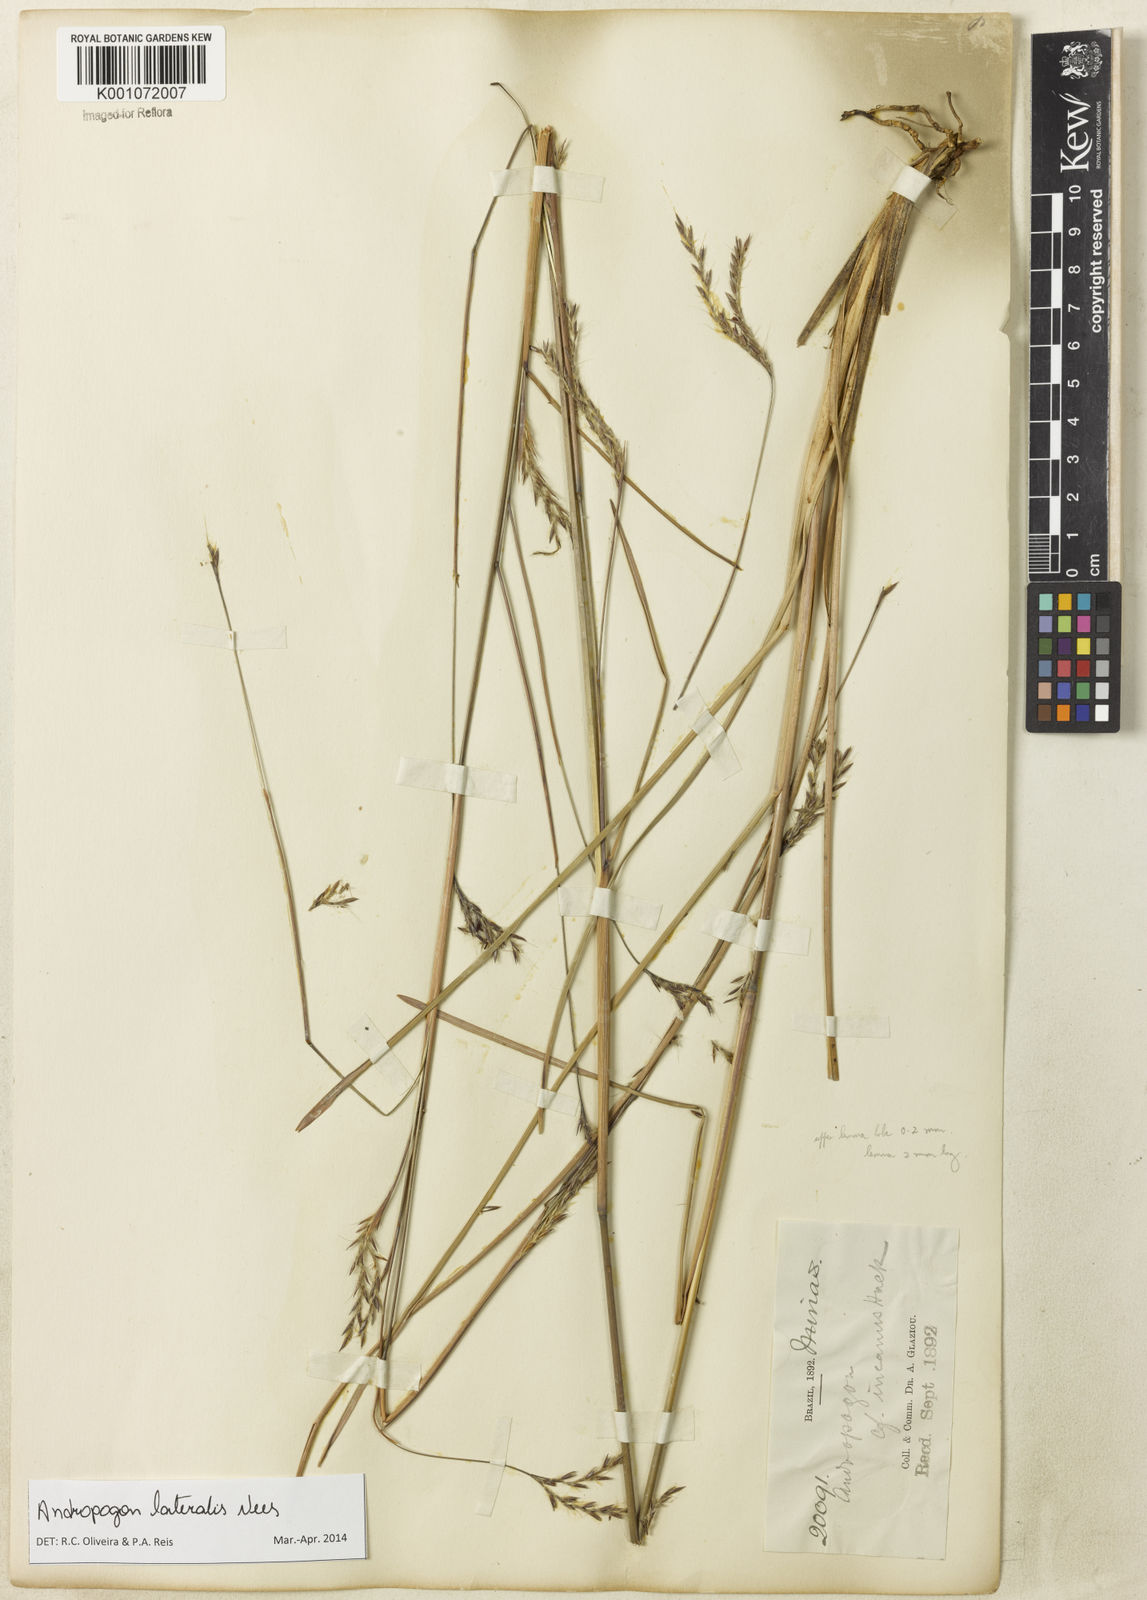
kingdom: Plantae
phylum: Tracheophyta
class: Liliopsida
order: Poales
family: Poaceae
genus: Andropogon
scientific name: Andropogon lateralis
